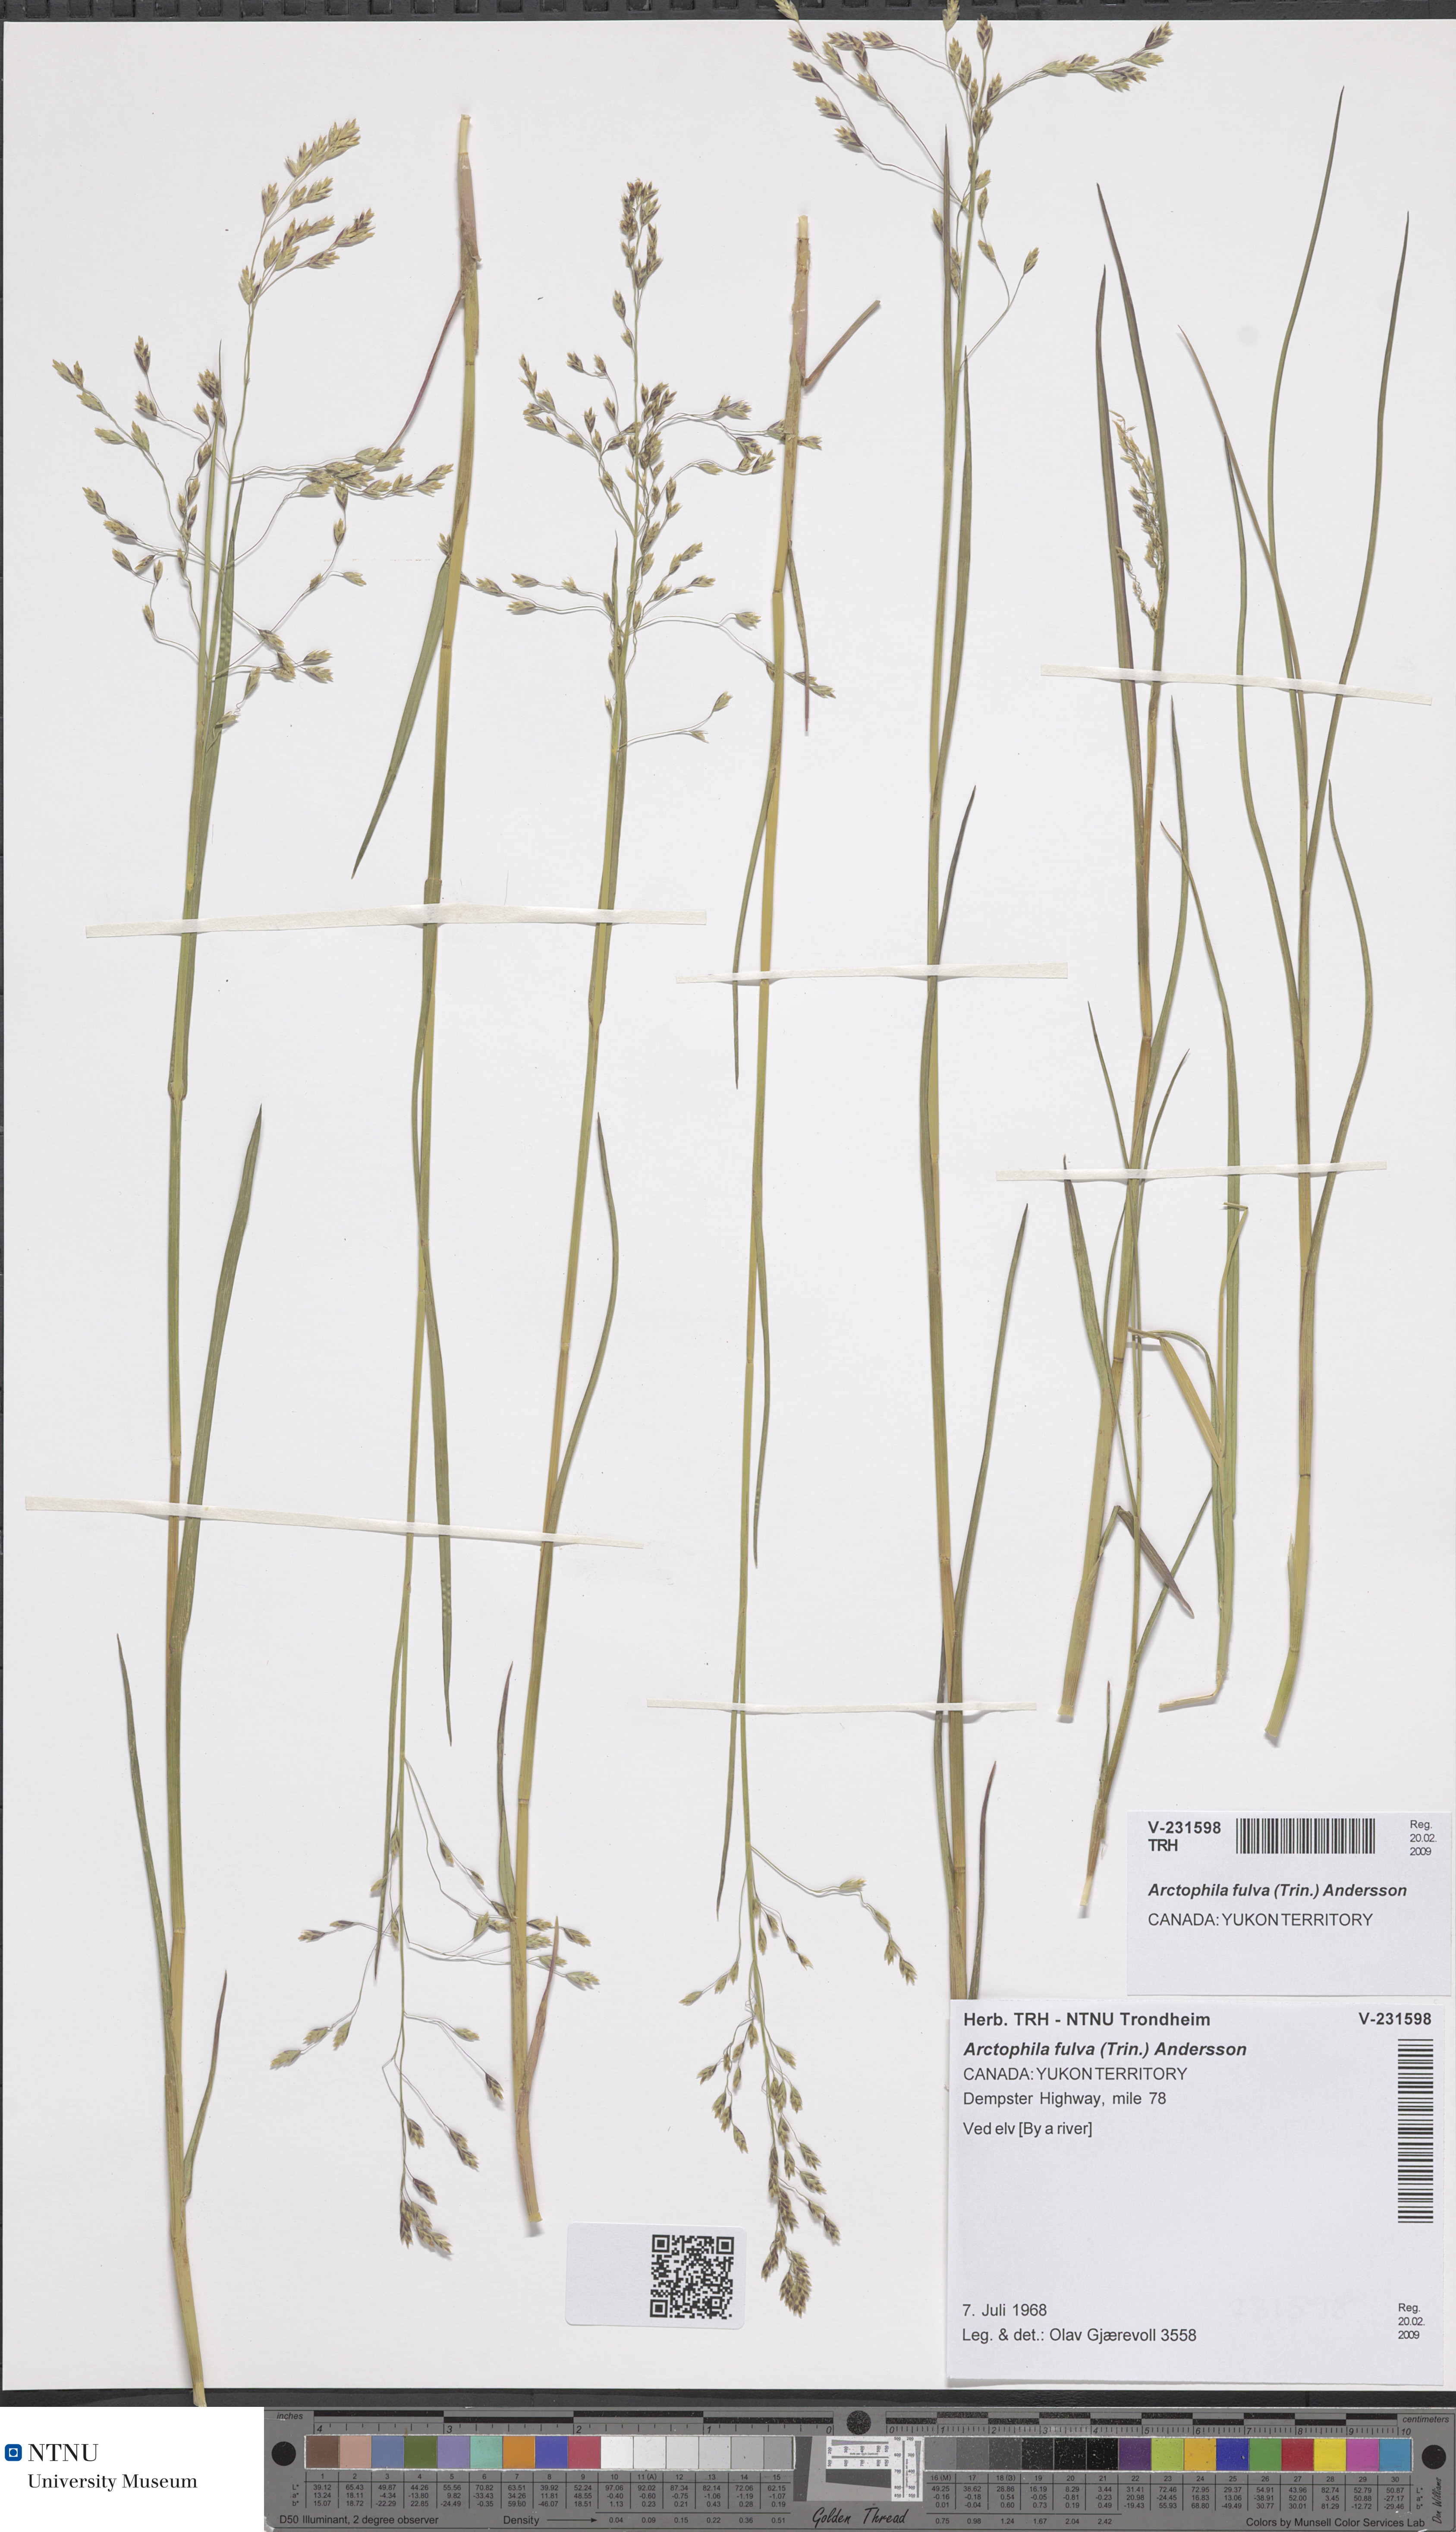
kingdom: Plantae
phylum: Tracheophyta
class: Liliopsida
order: Poales
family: Poaceae
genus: Dupontia
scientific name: Dupontia fulva
